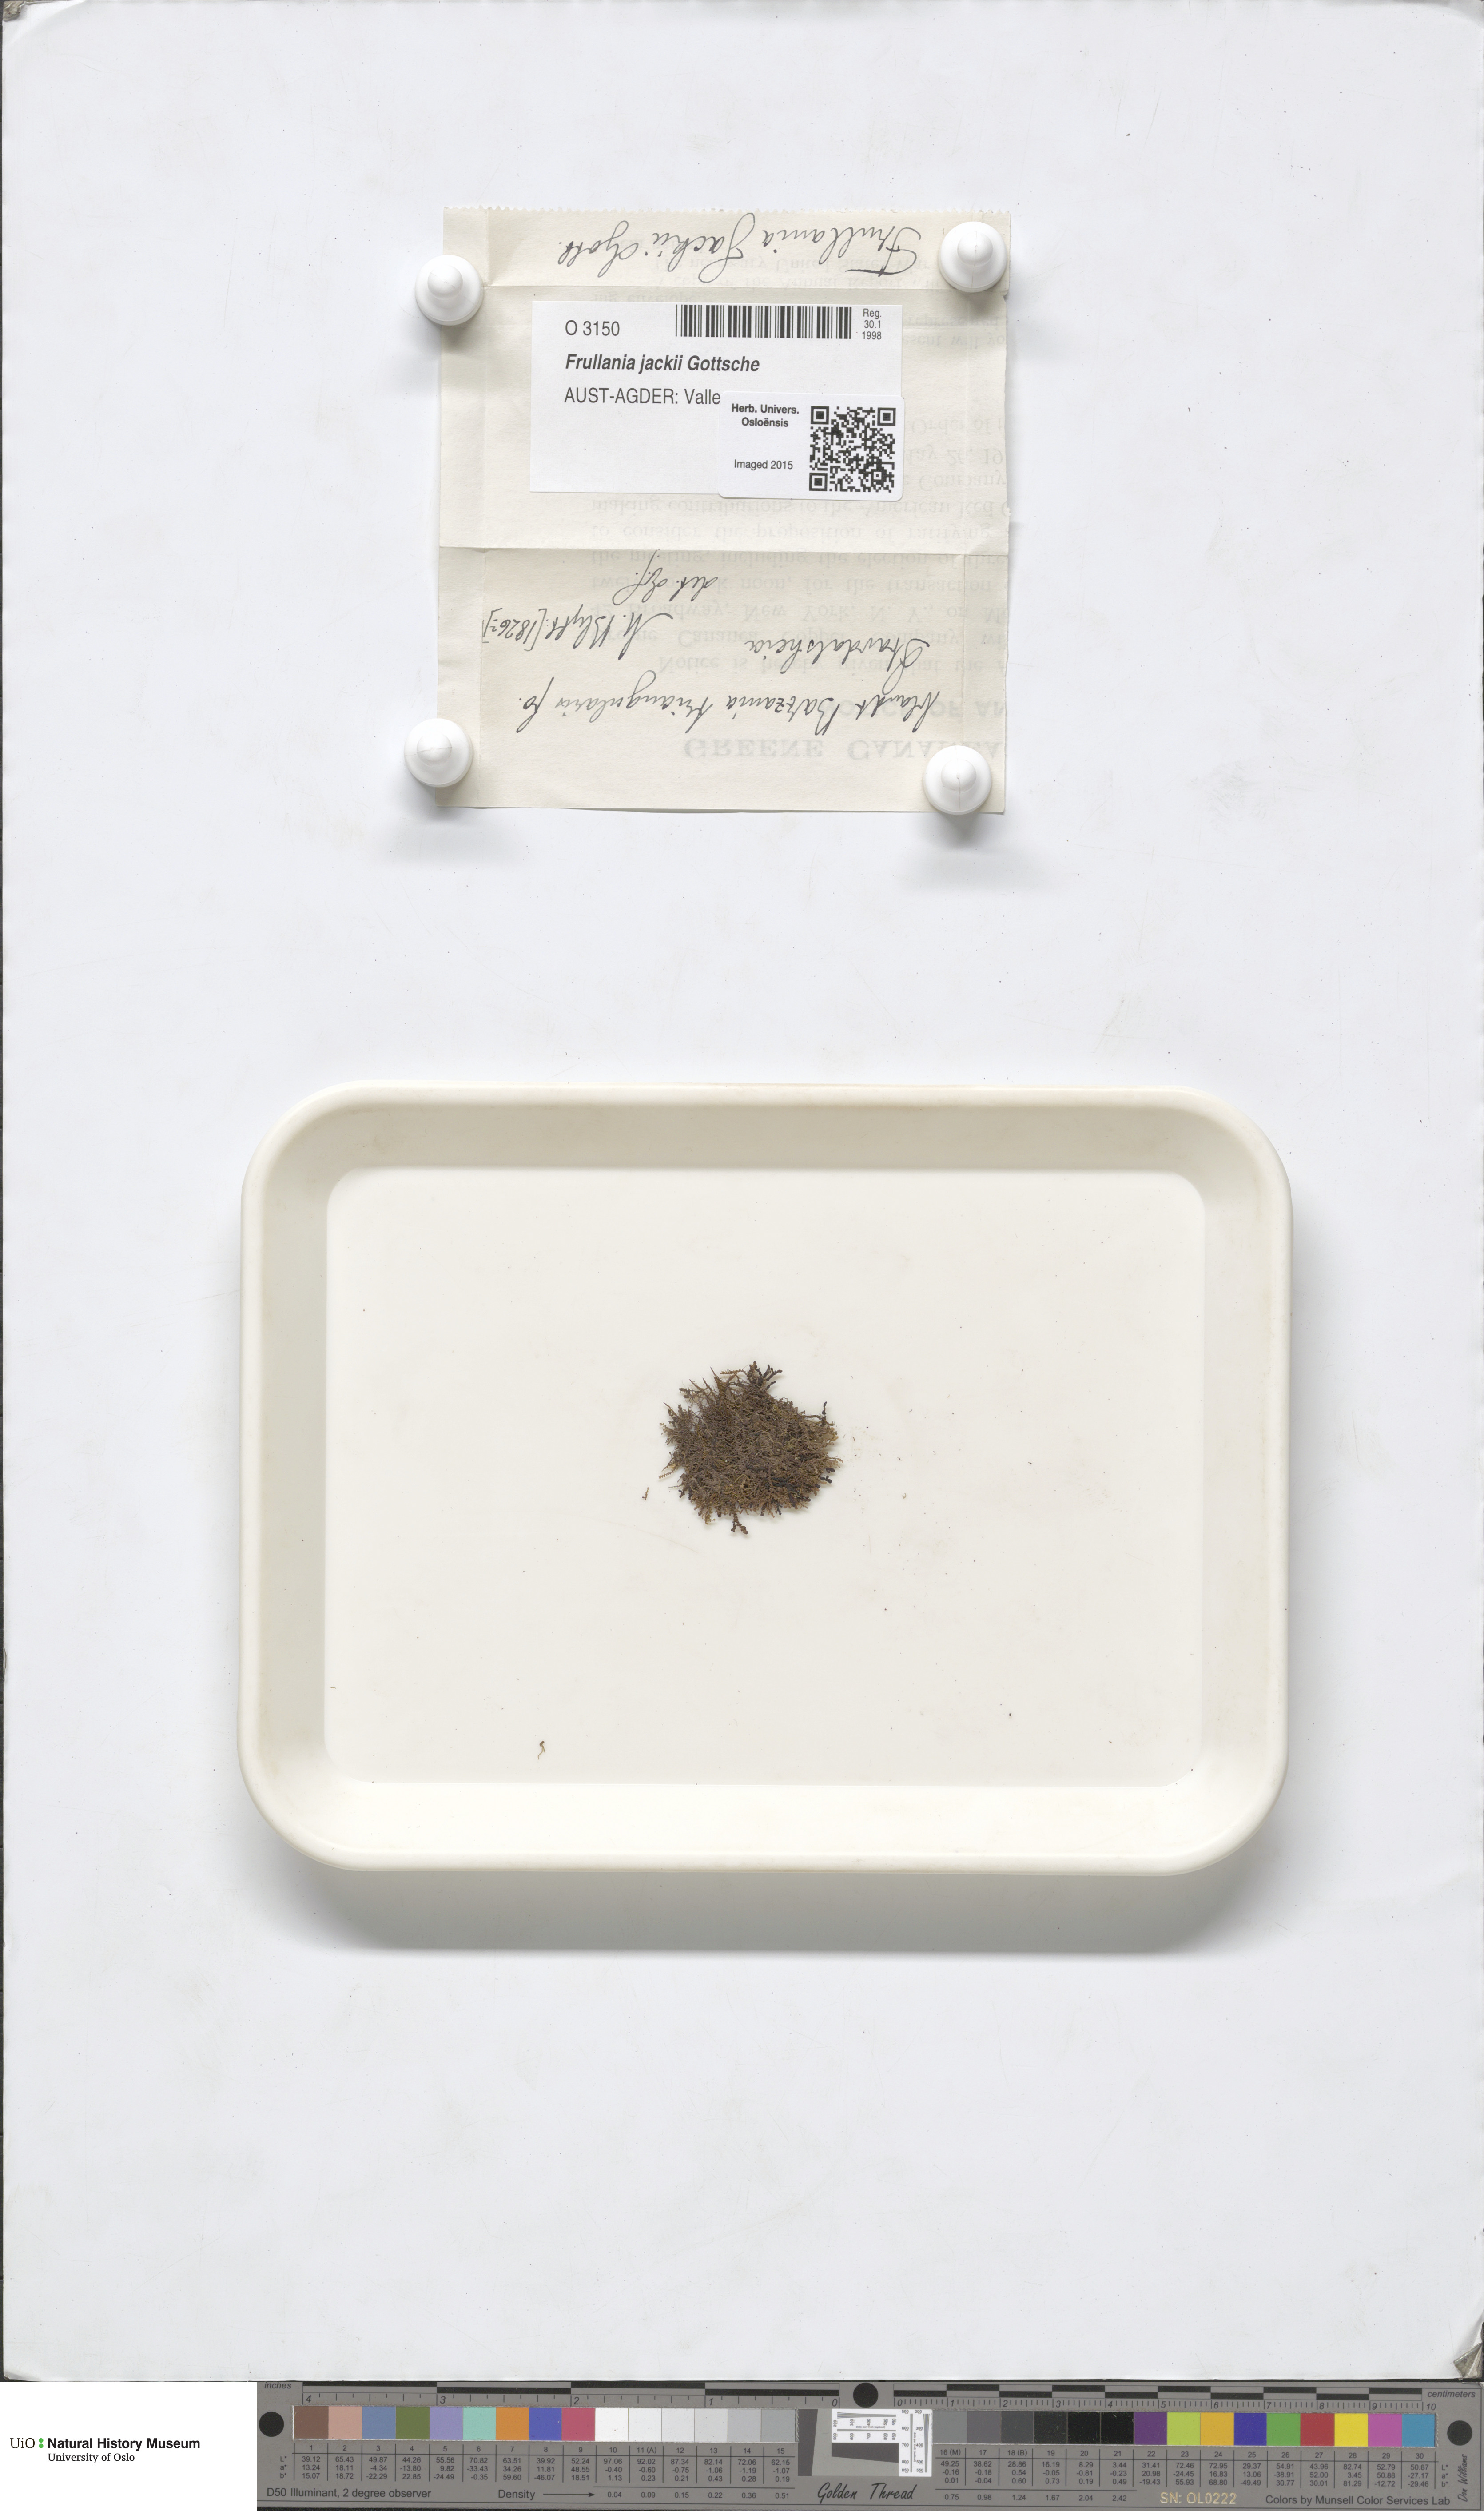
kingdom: Plantae
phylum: Marchantiophyta
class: Jungermanniopsida
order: Porellales
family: Frullaniaceae
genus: Frullania
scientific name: Frullania jackii
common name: Jack's scalewort
